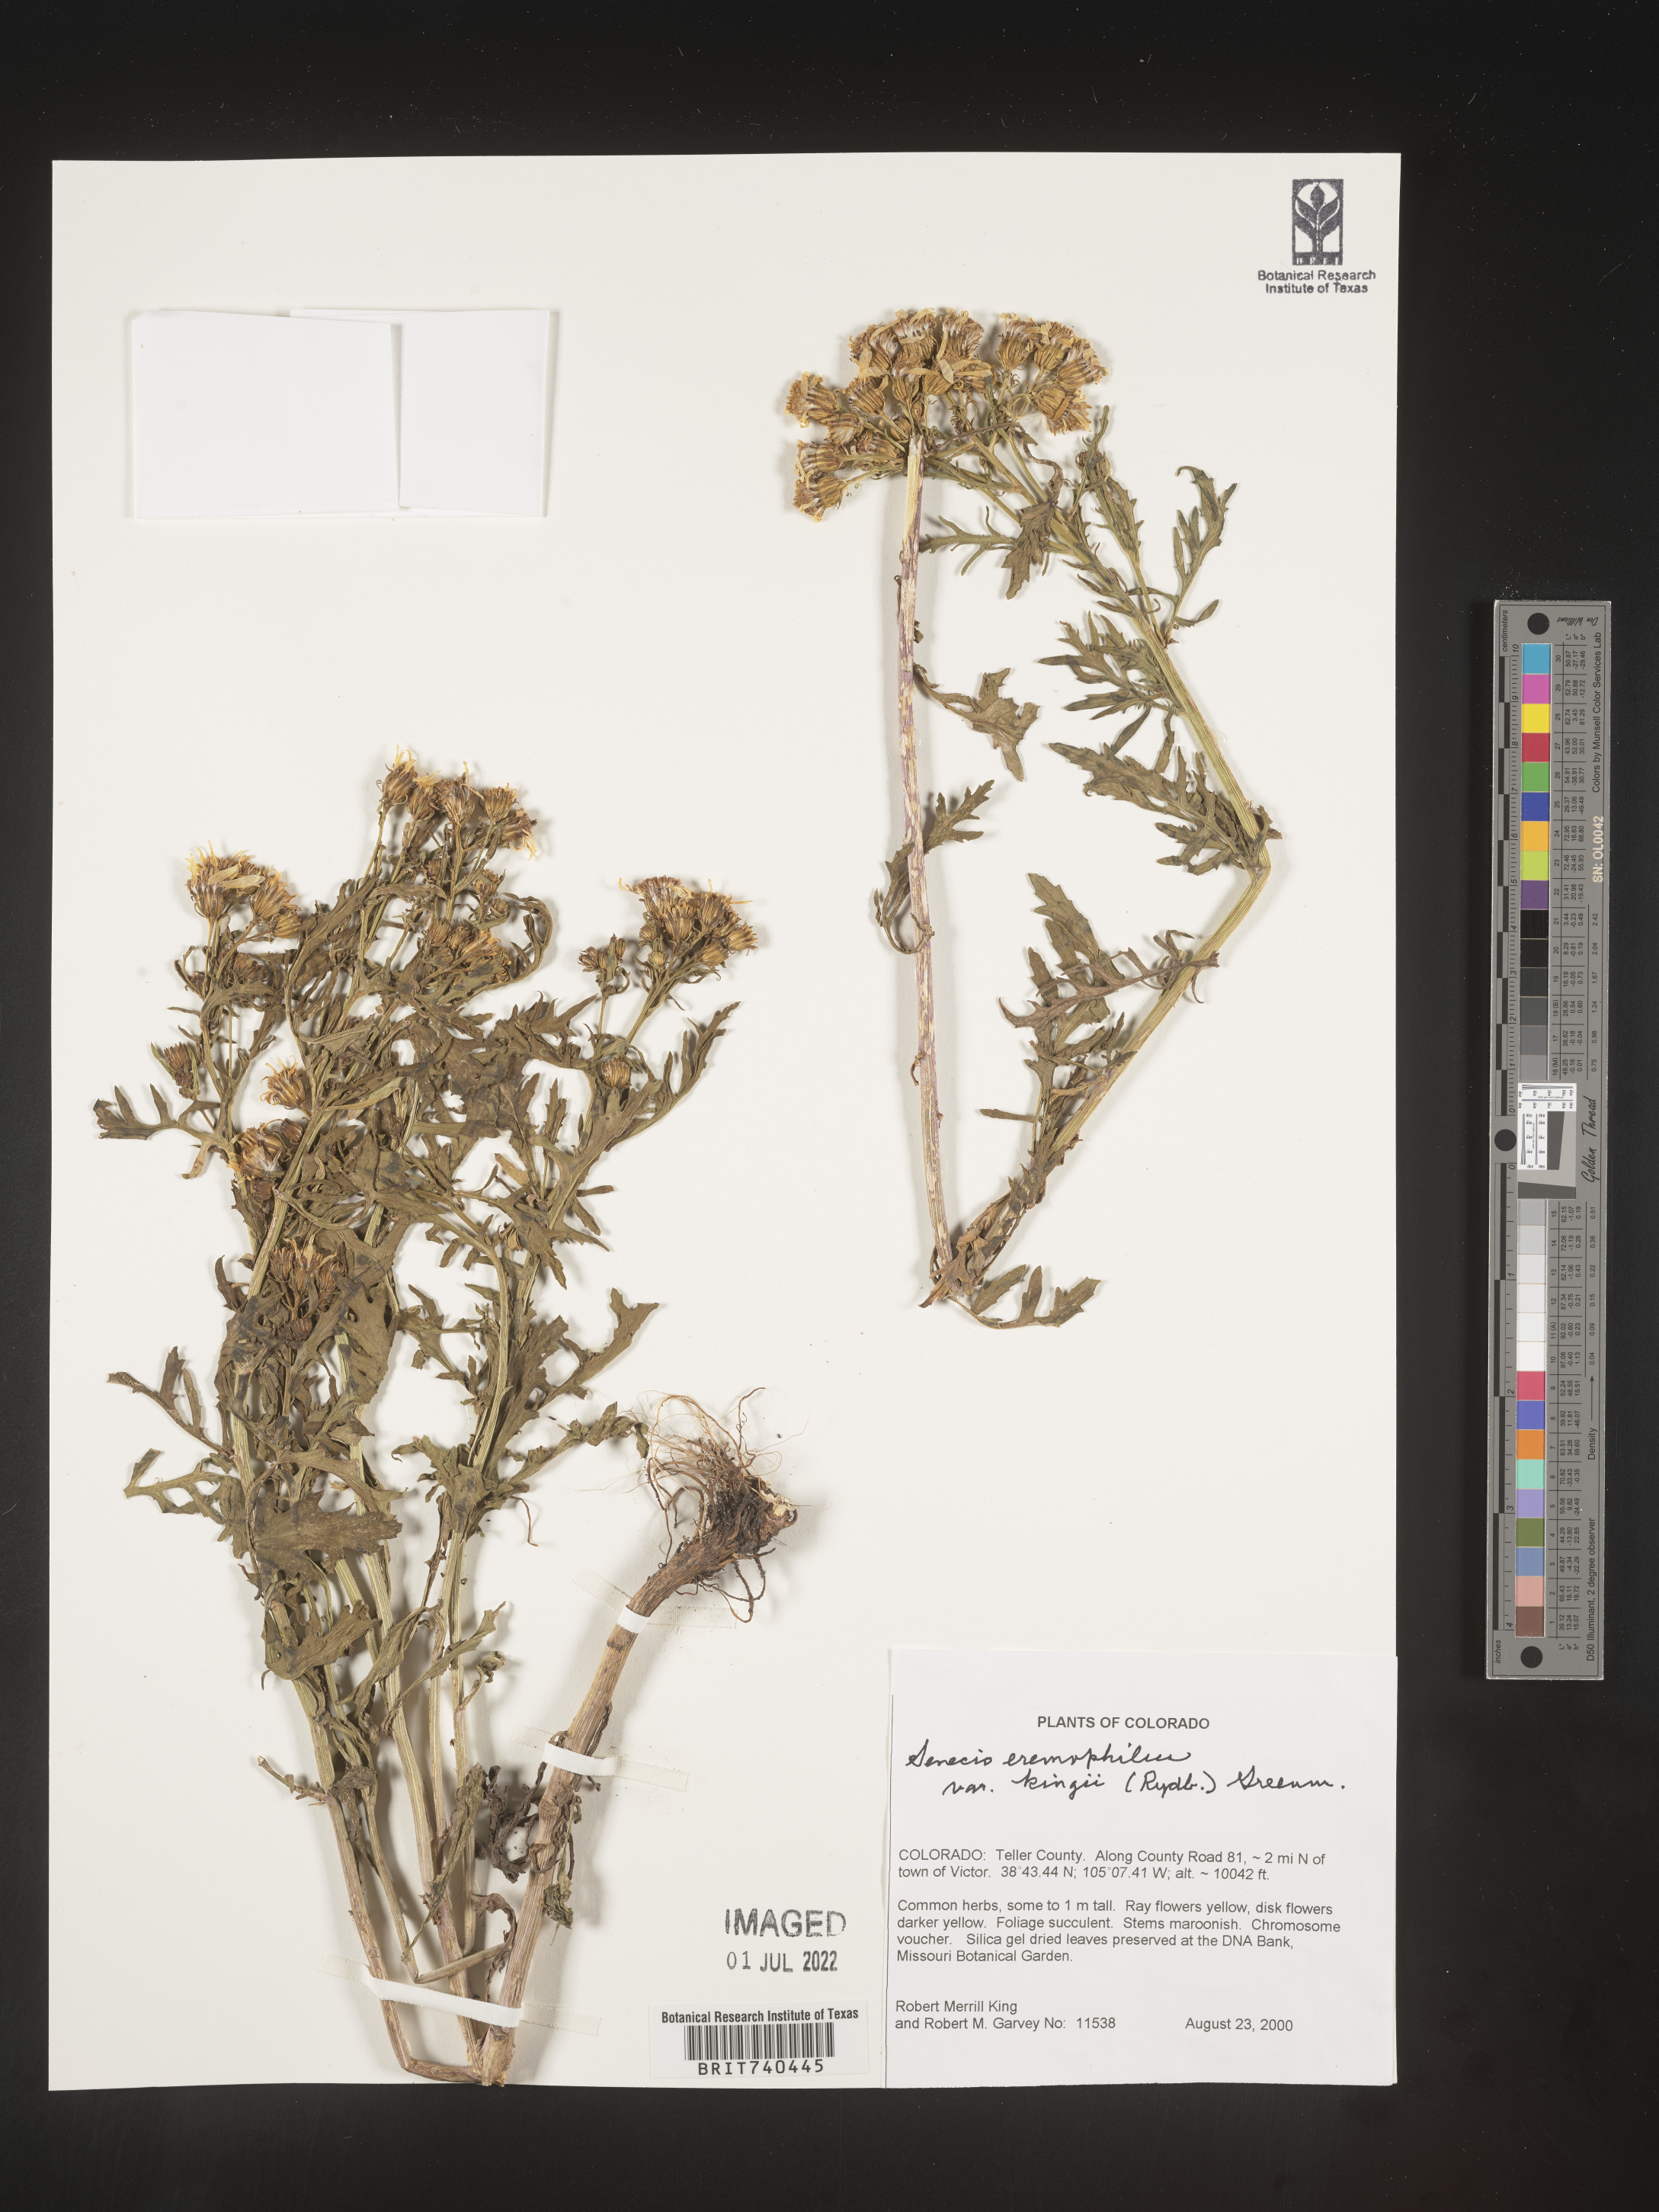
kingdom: Plantae
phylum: Tracheophyta
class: Magnoliopsida
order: Asterales
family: Asteraceae
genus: Senecio
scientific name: Senecio eremophilus
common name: Desert ragwort
